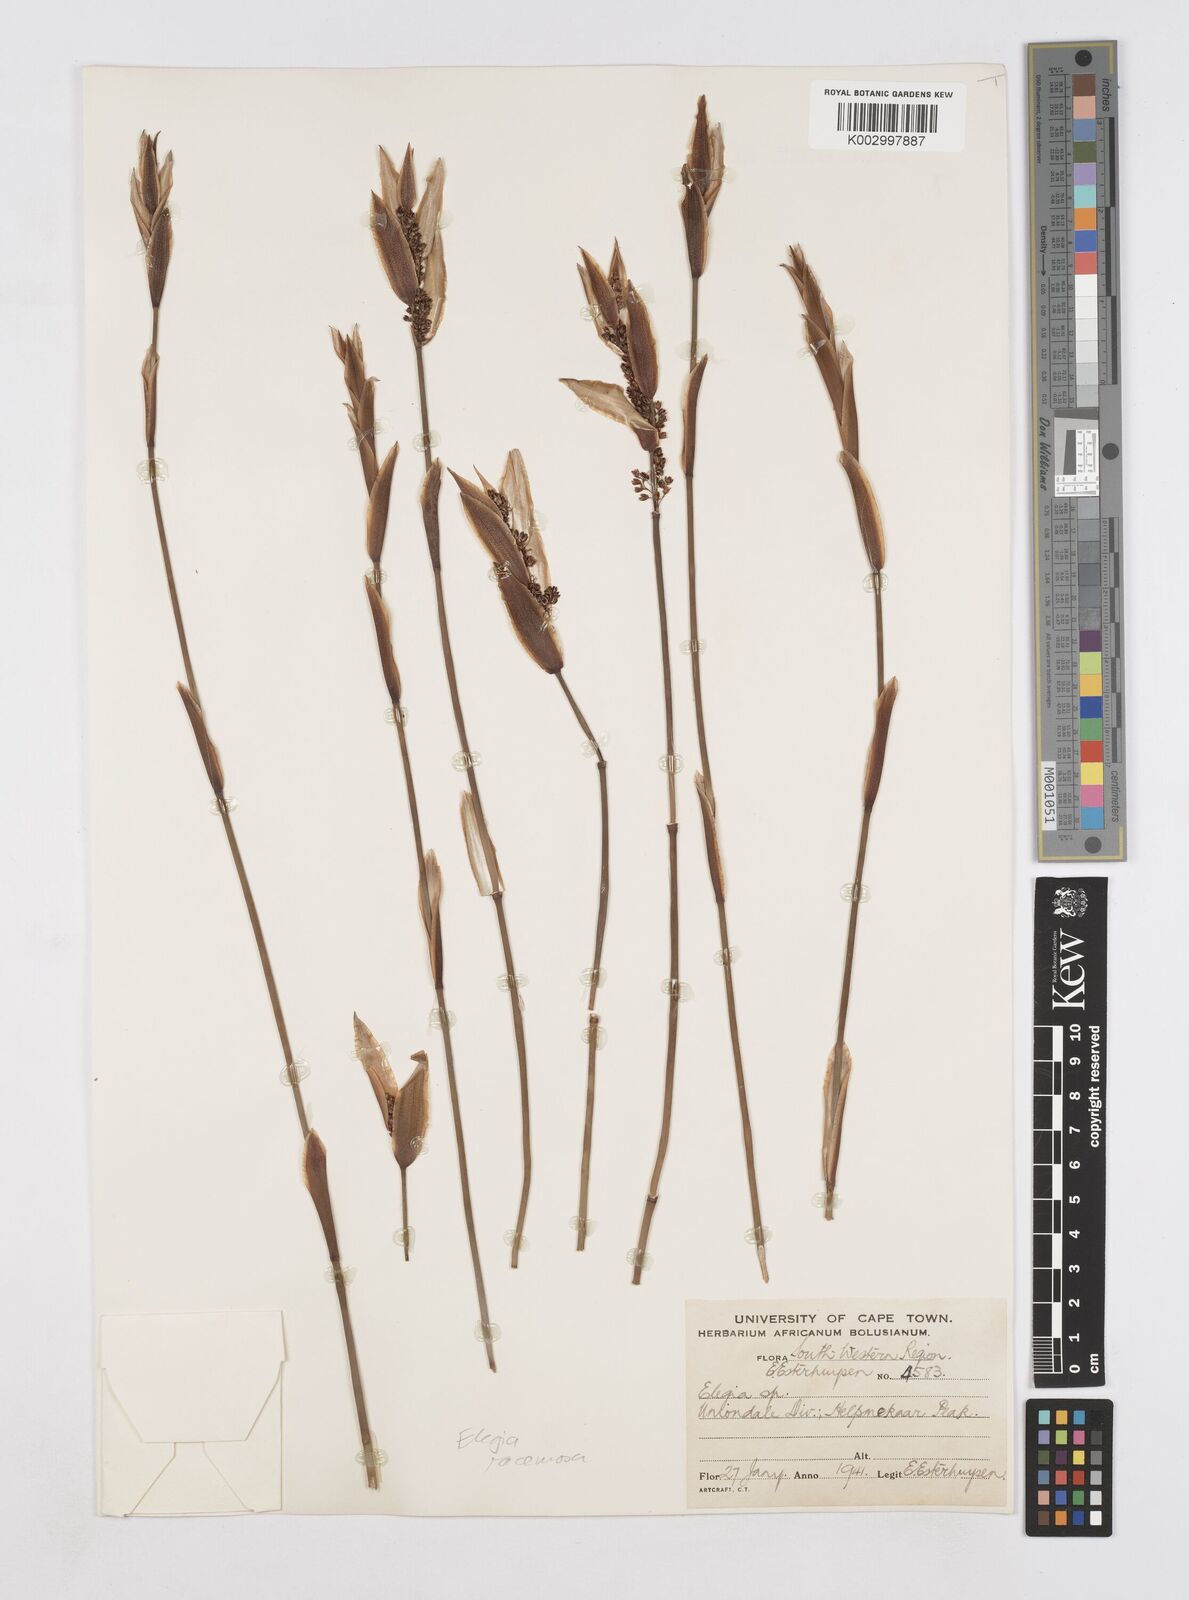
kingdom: Plantae
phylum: Tracheophyta
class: Liliopsida
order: Poales
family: Restionaceae
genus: Elegia
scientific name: Elegia racemosa
